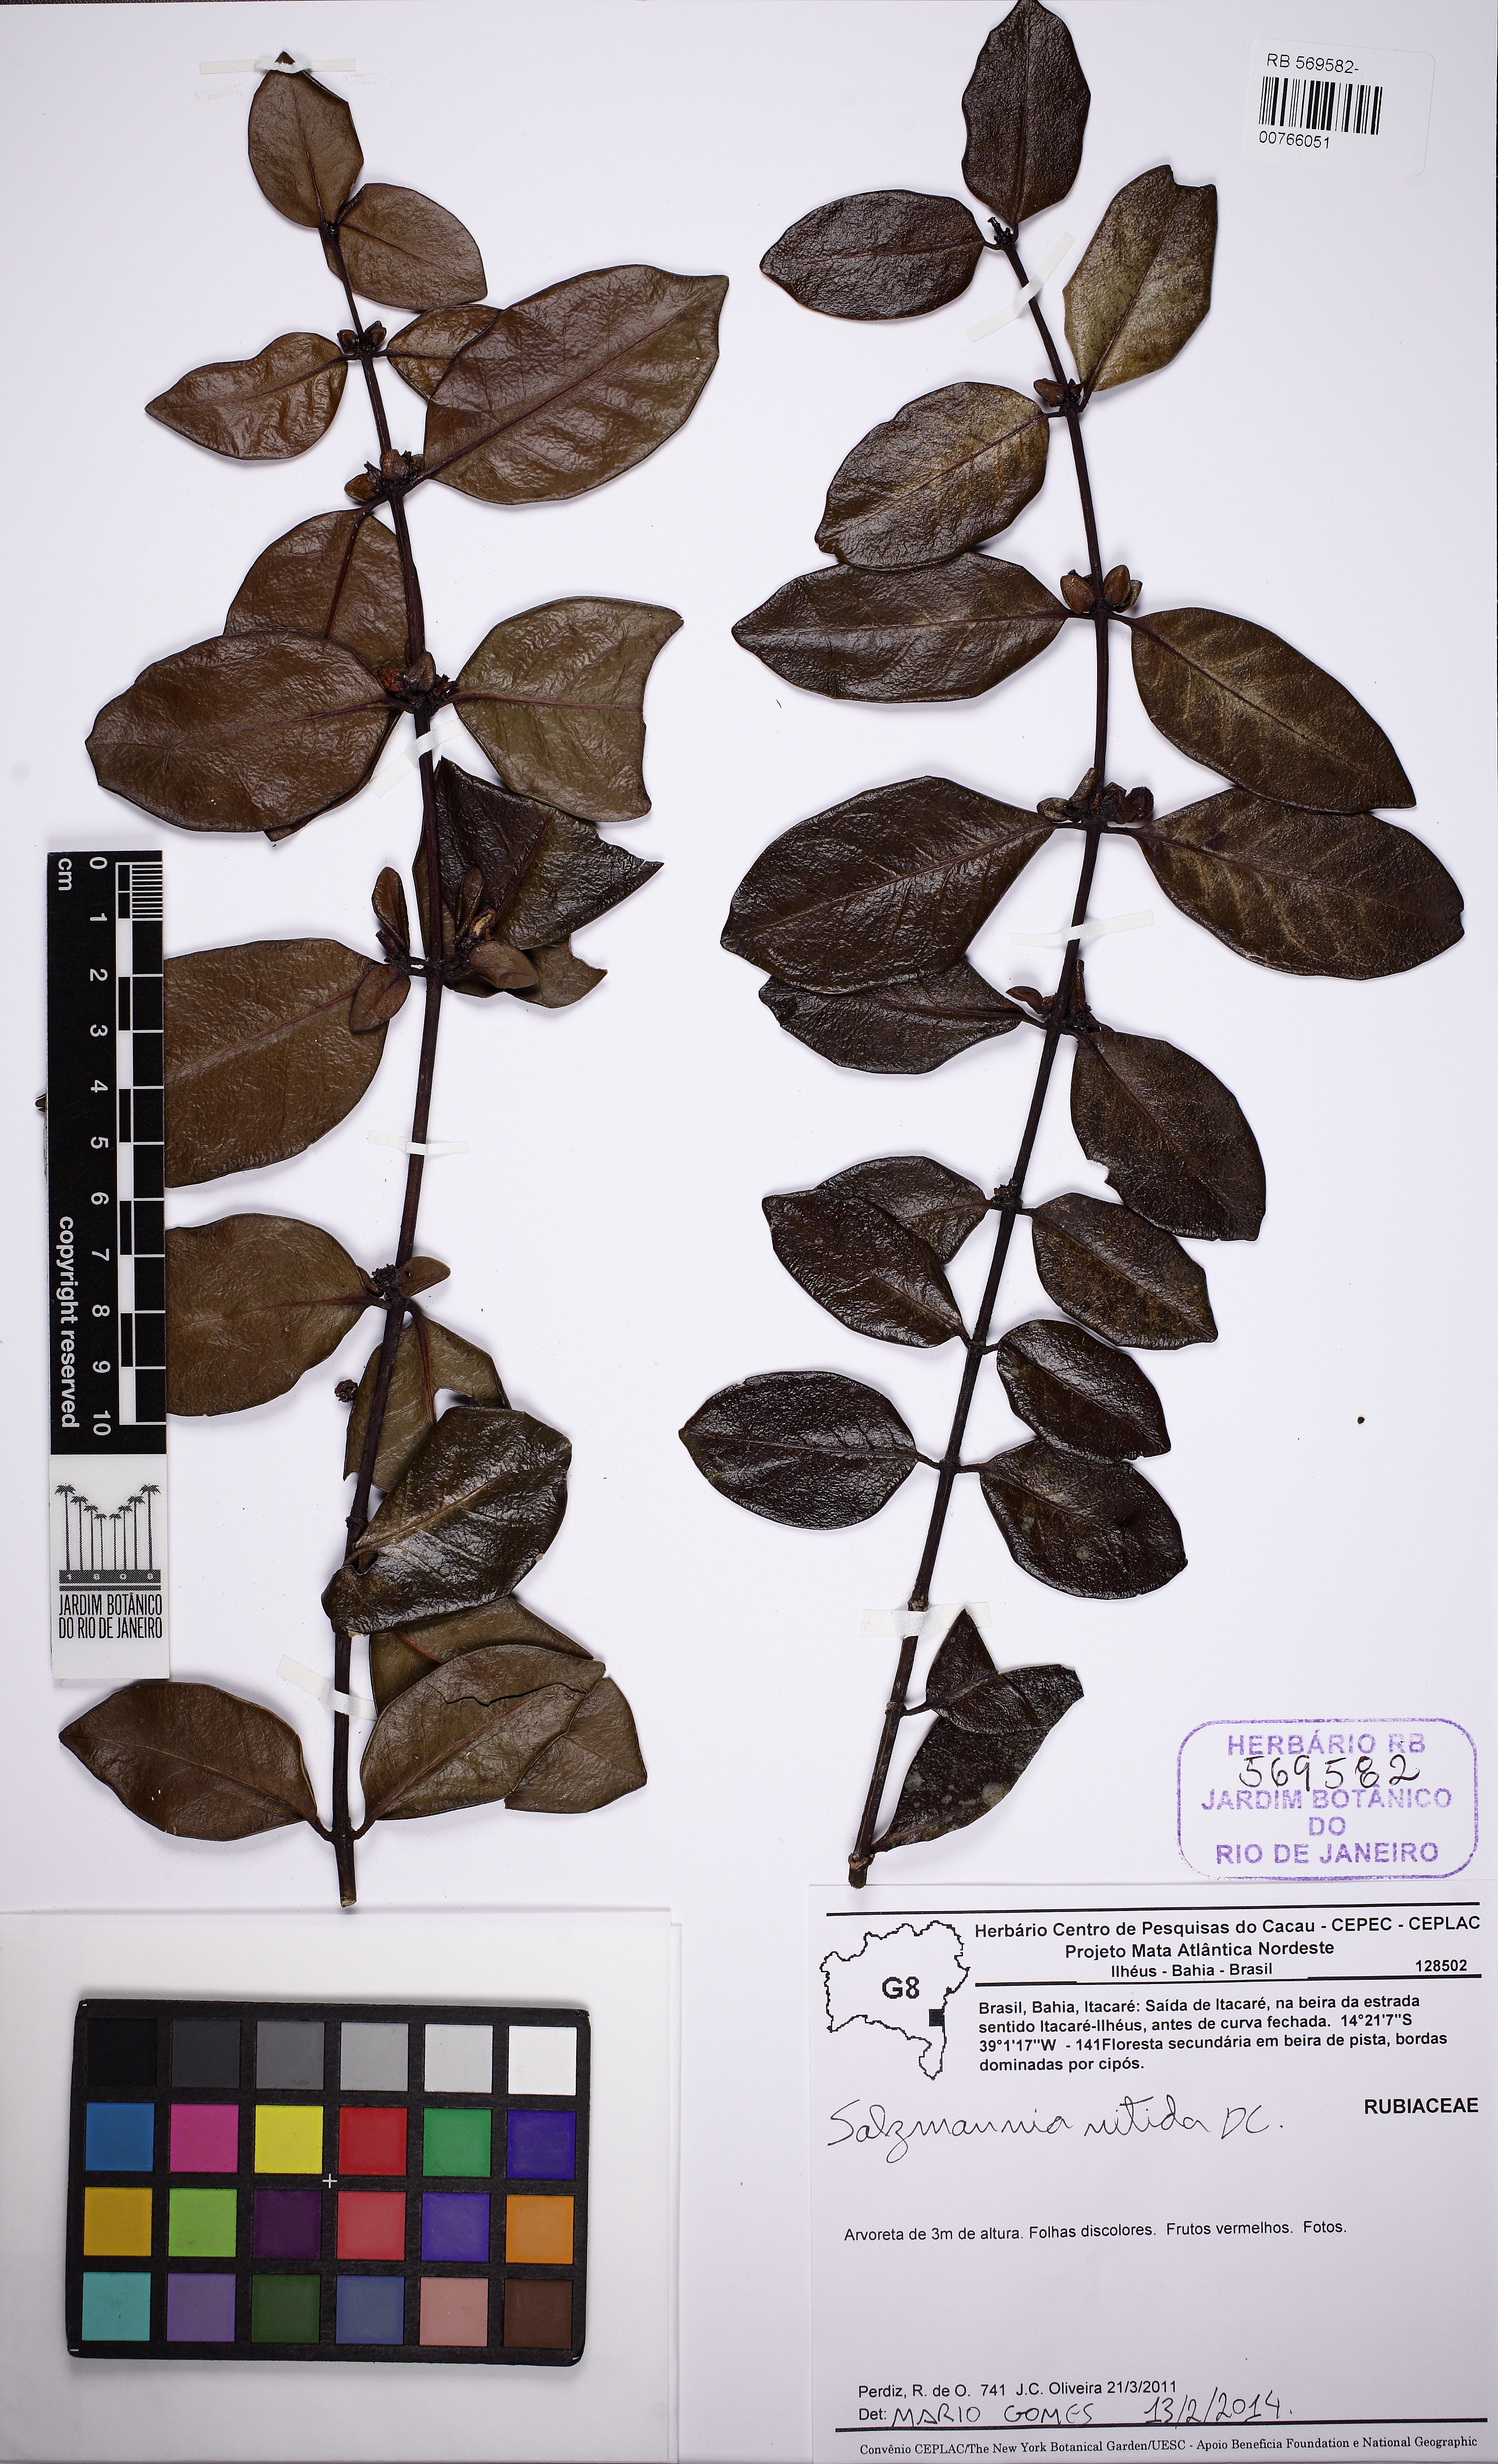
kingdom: Plantae
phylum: Tracheophyta
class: Magnoliopsida
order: Gentianales
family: Rubiaceae
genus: Salzmannia
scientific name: Salzmannia nitida
